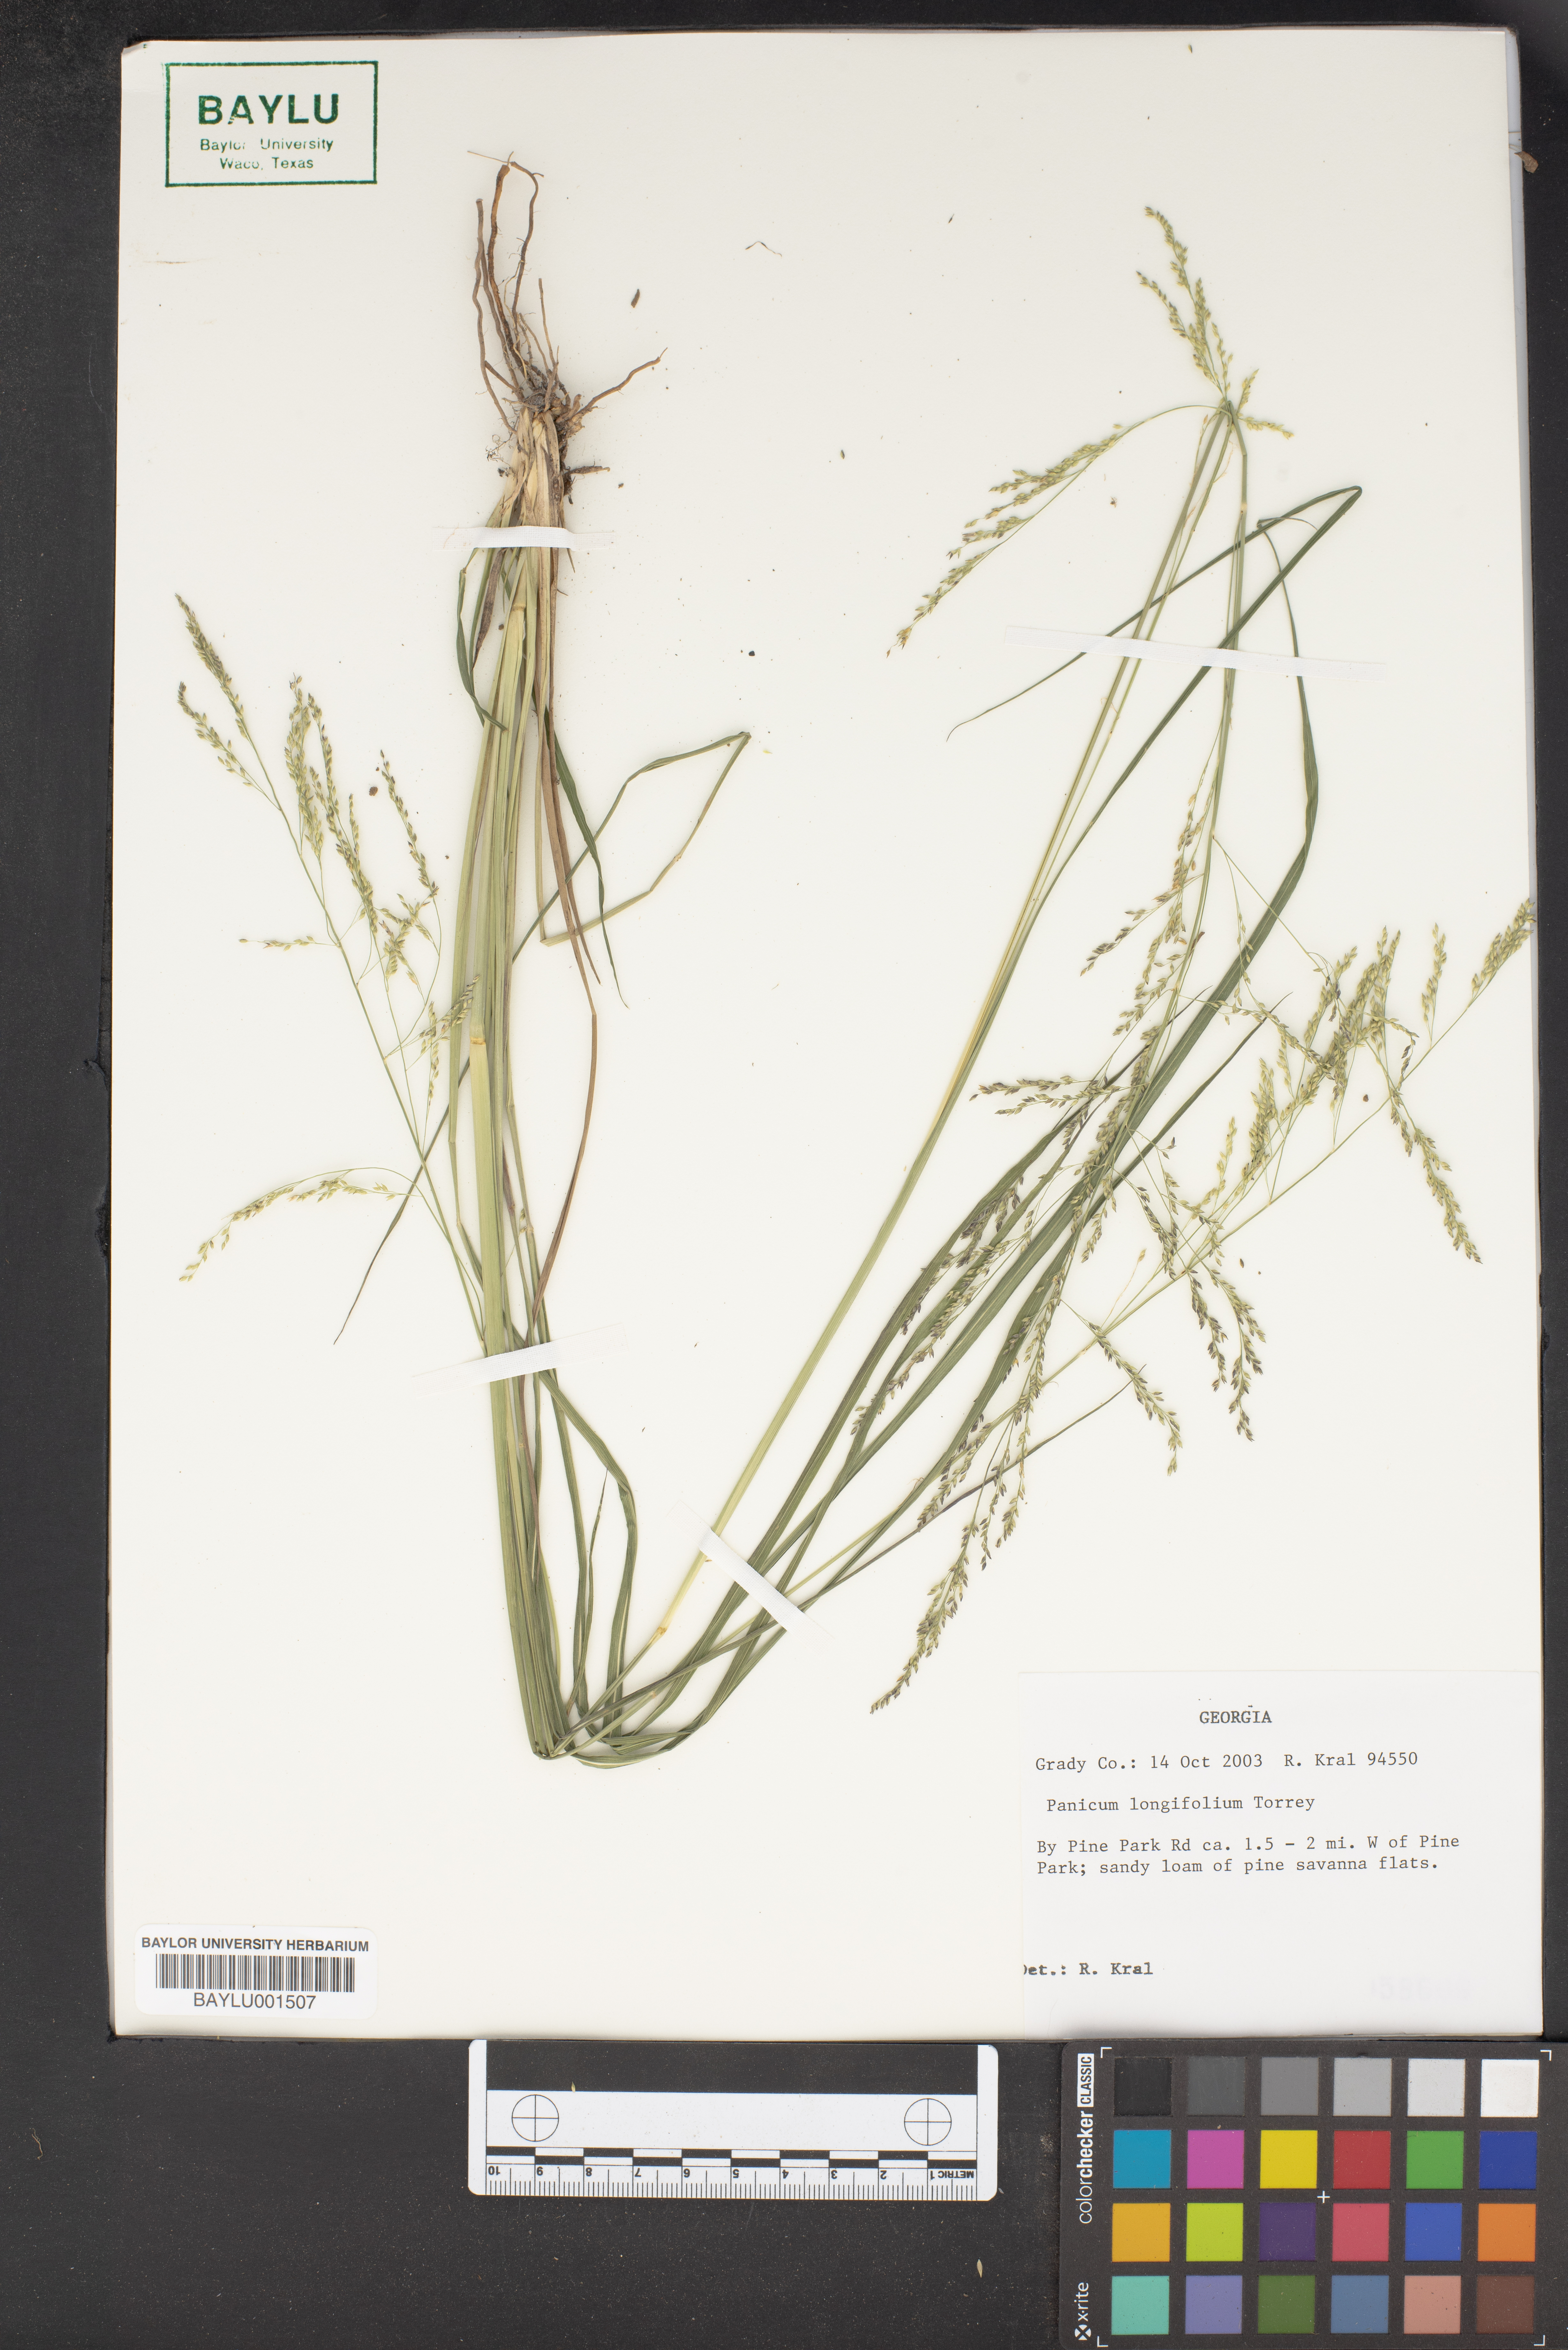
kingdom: Plantae
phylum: Tracheophyta
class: Liliopsida
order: Poales
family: Poaceae
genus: Coleataenia
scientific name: Coleataenia longifolia
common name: Long-leaved panicgrass
